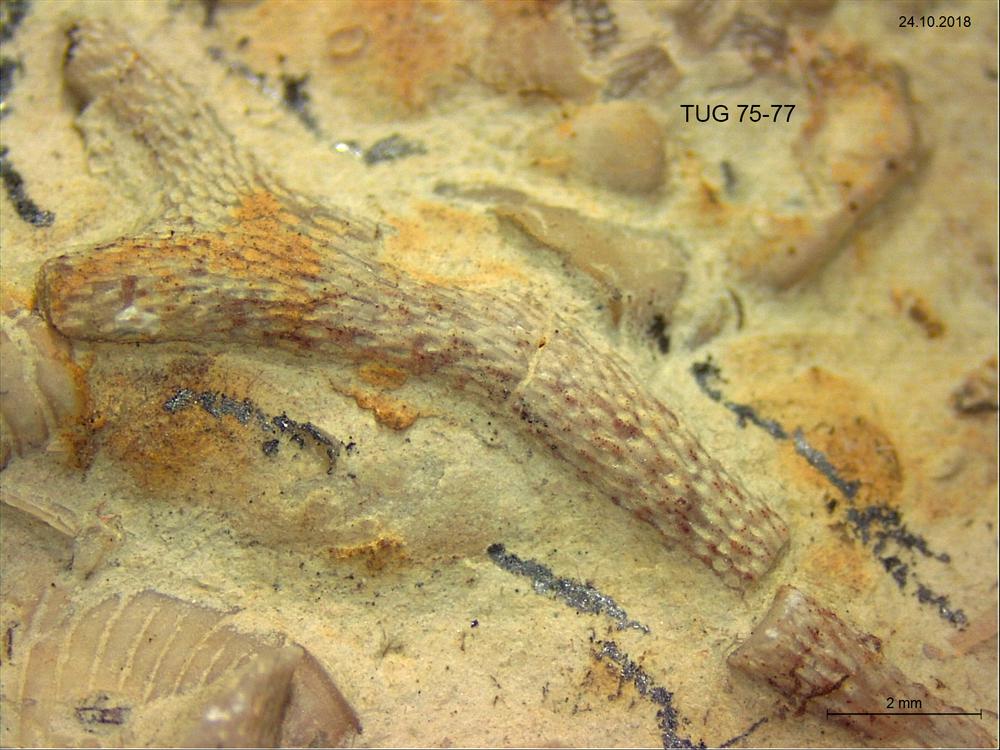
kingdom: Animalia
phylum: Bryozoa
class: Stenolaemata
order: Trepostomatida
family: Aisenvergiidae
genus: Eridotrypa
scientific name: Eridotrypa aedilis
